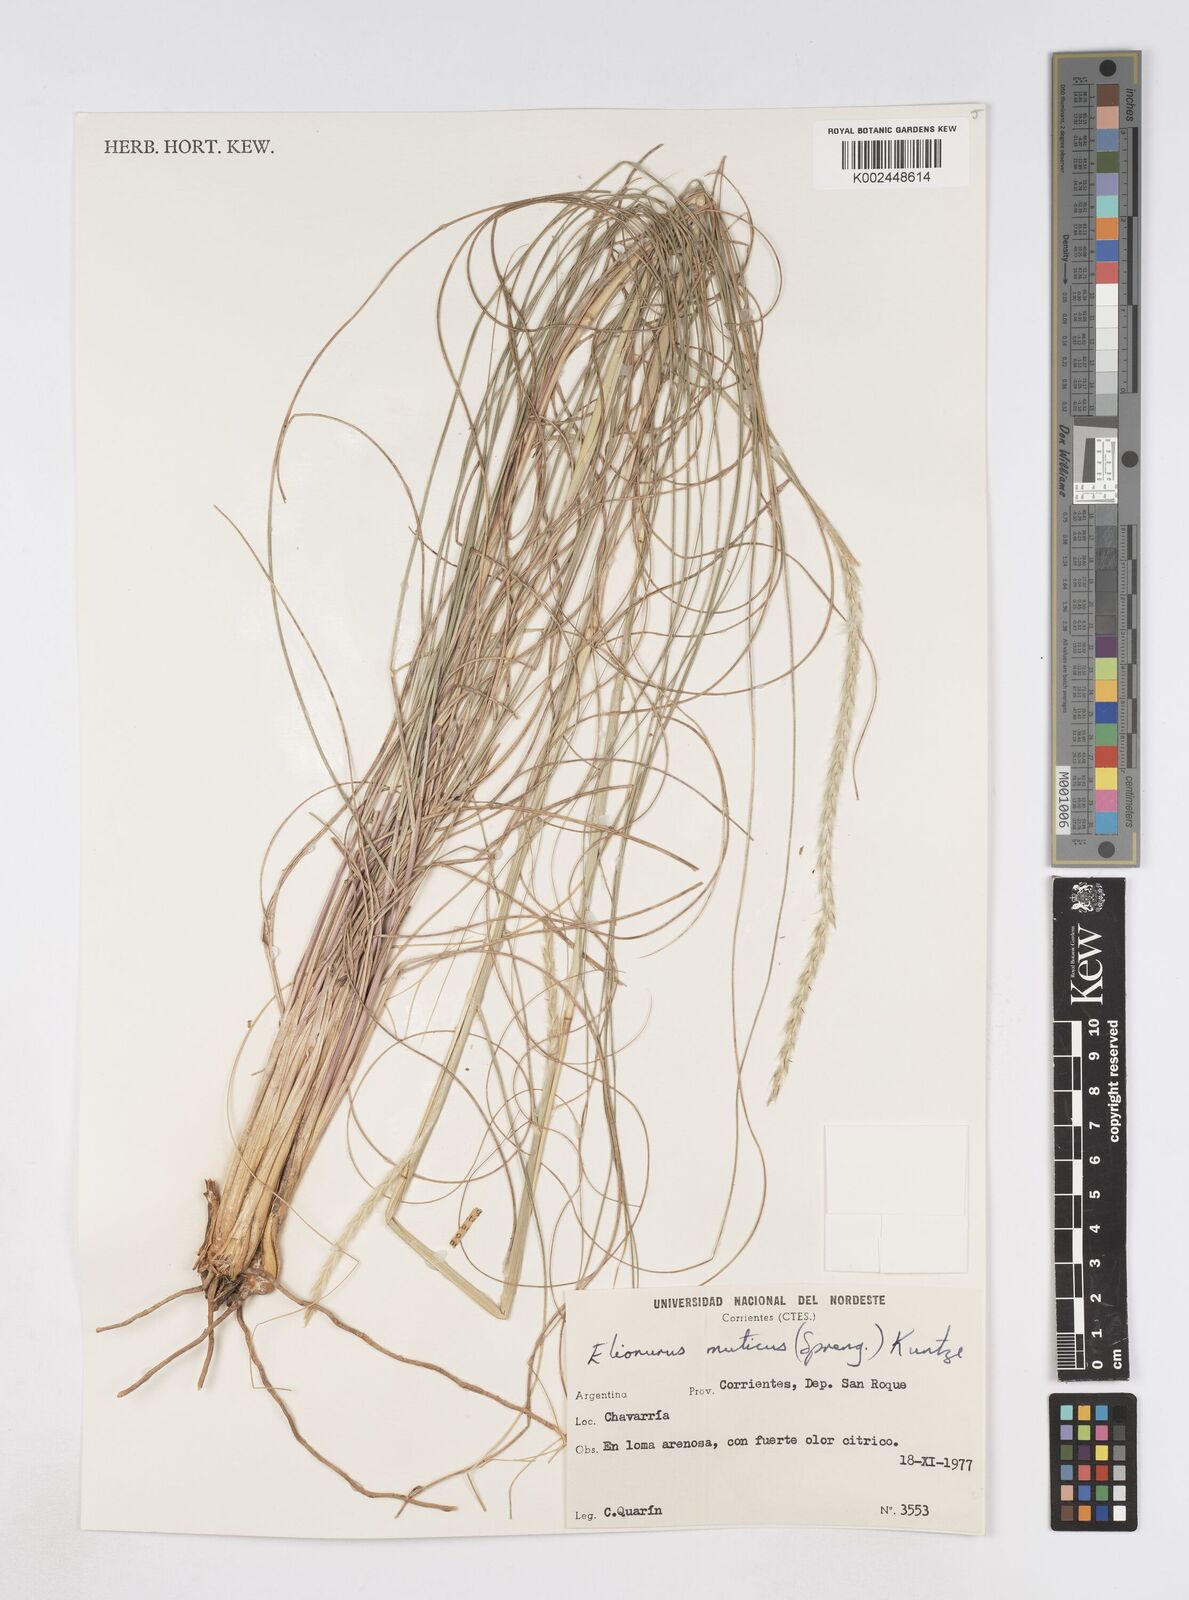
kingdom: Plantae
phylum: Tracheophyta
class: Liliopsida
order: Poales
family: Poaceae
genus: Elionurus
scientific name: Elionurus muticus
